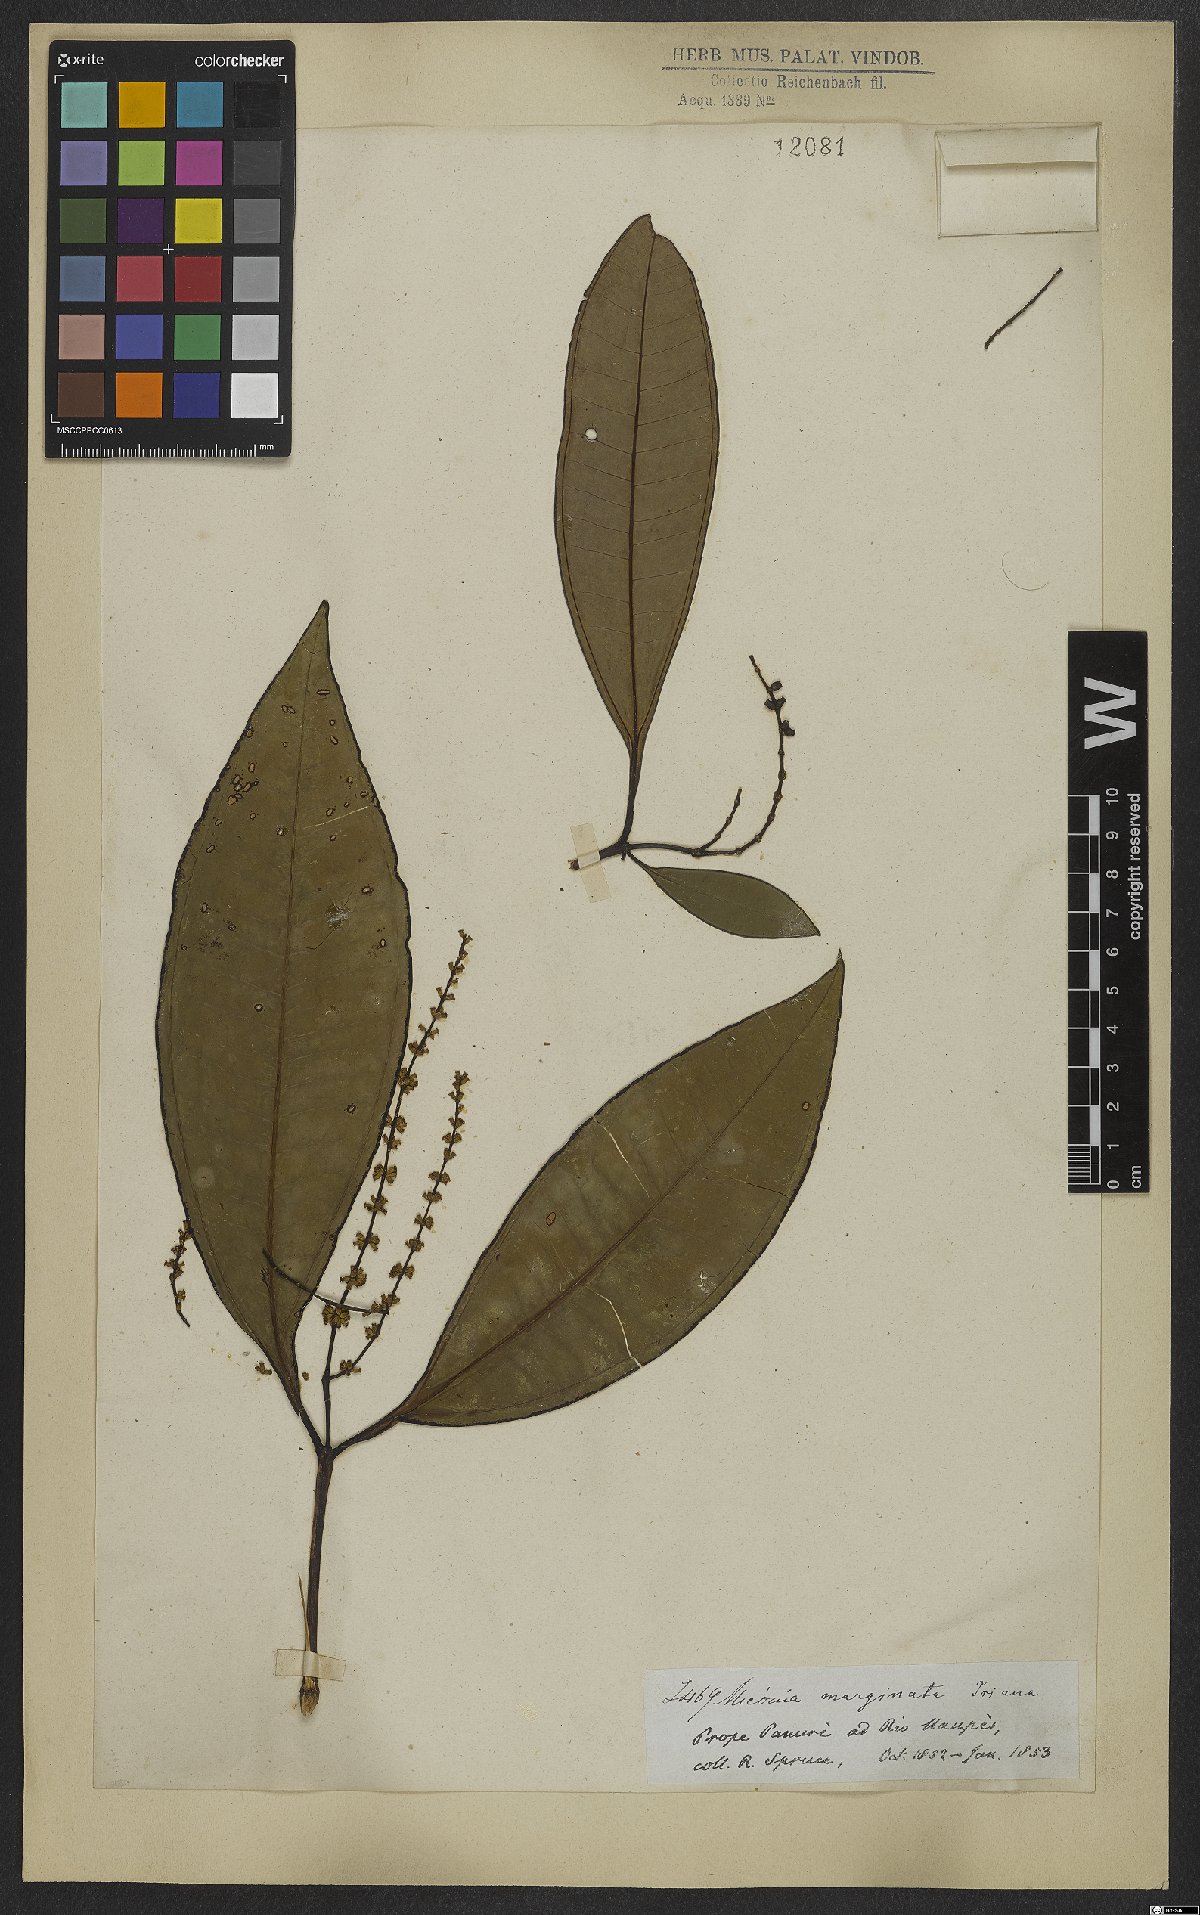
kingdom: Plantae
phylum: Tracheophyta
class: Magnoliopsida
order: Myrtales
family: Melastomataceae
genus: Miconia
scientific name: Miconia marginata
